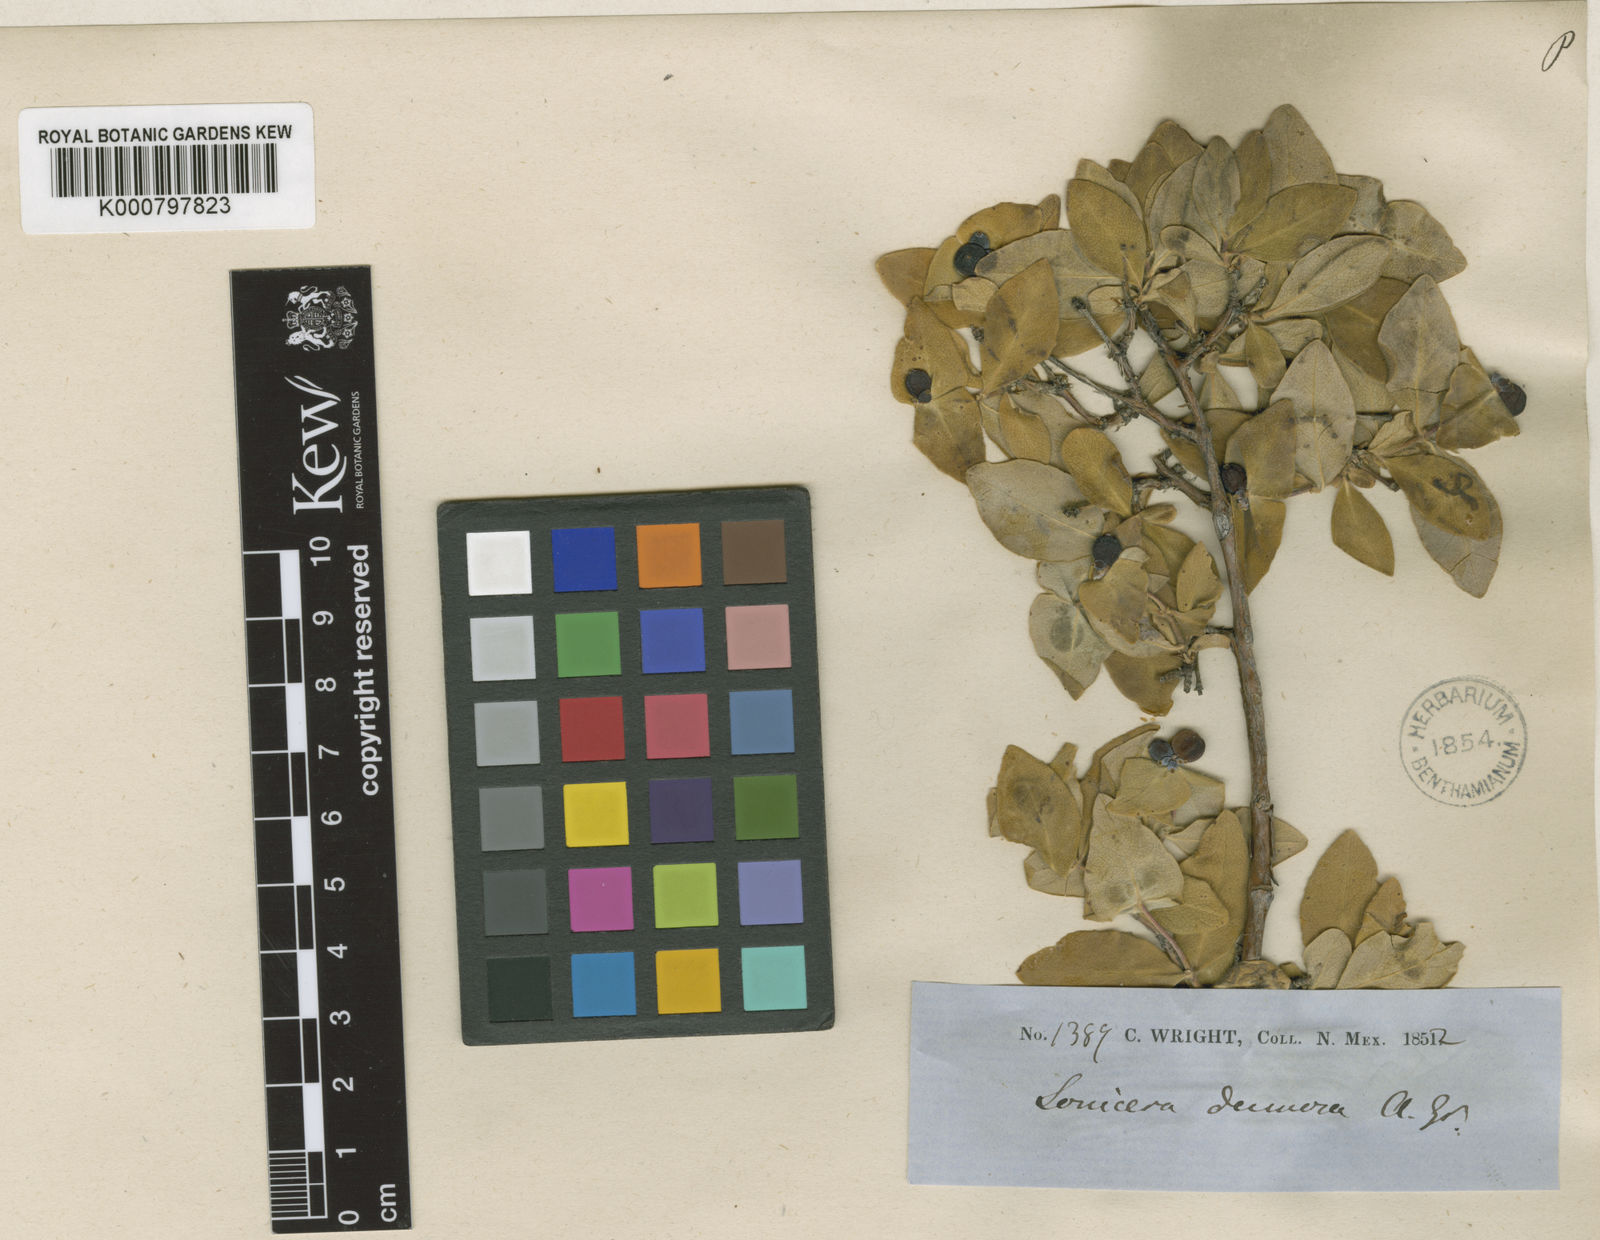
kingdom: Plantae
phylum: Tracheophyta
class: Magnoliopsida
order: Dipsacales
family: Caprifoliaceae
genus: Lonicera
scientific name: Lonicera albiflora
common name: White honeysuckle
